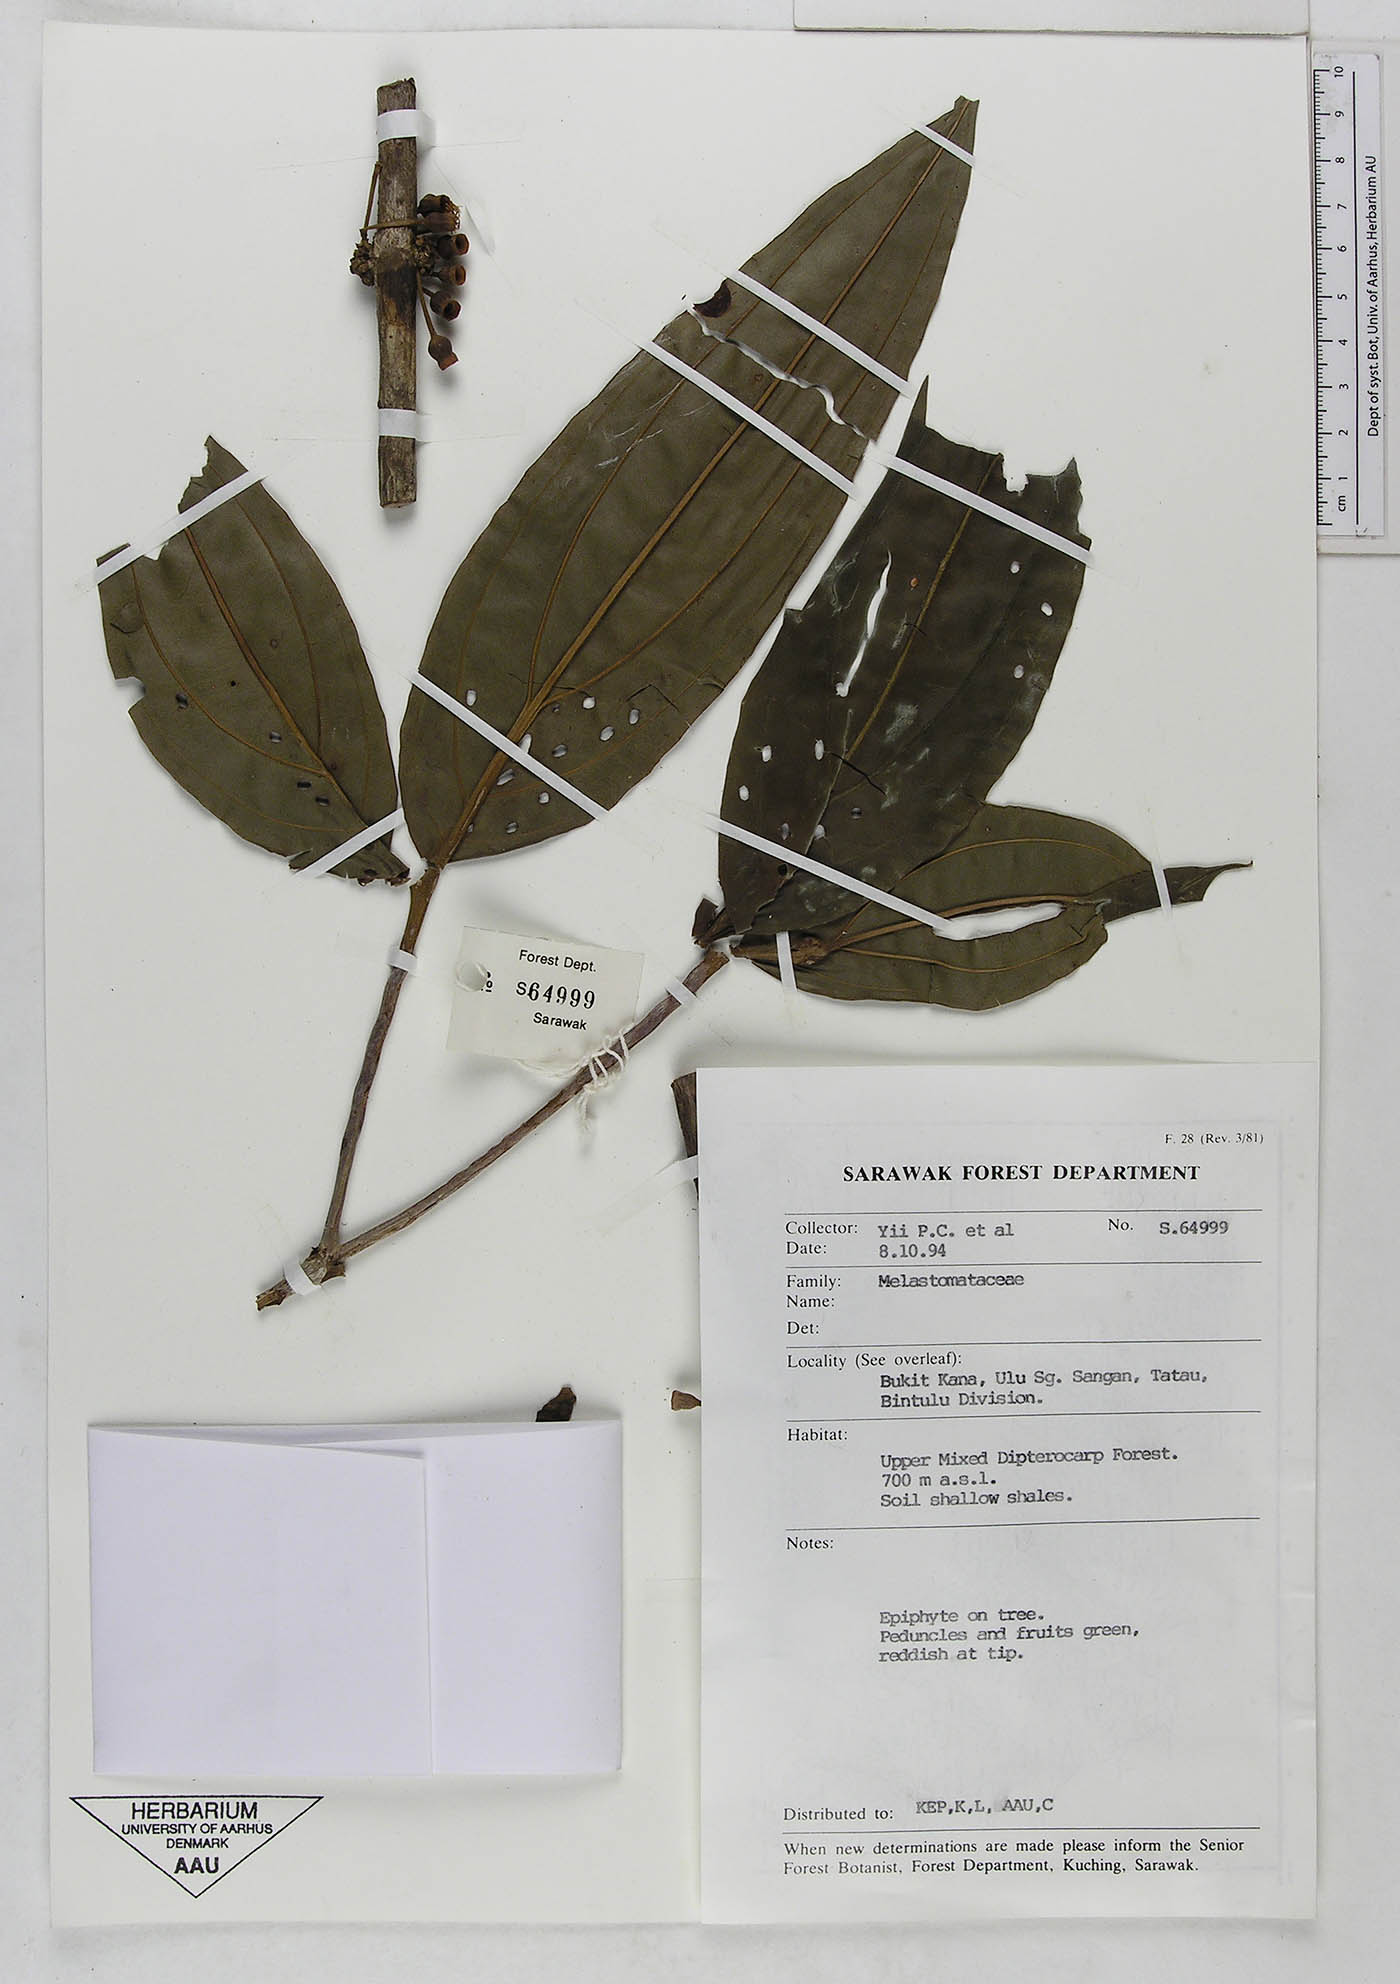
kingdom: Plantae
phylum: Tracheophyta
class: Magnoliopsida
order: Myrtales
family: Melastomataceae
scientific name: Melastomataceae
